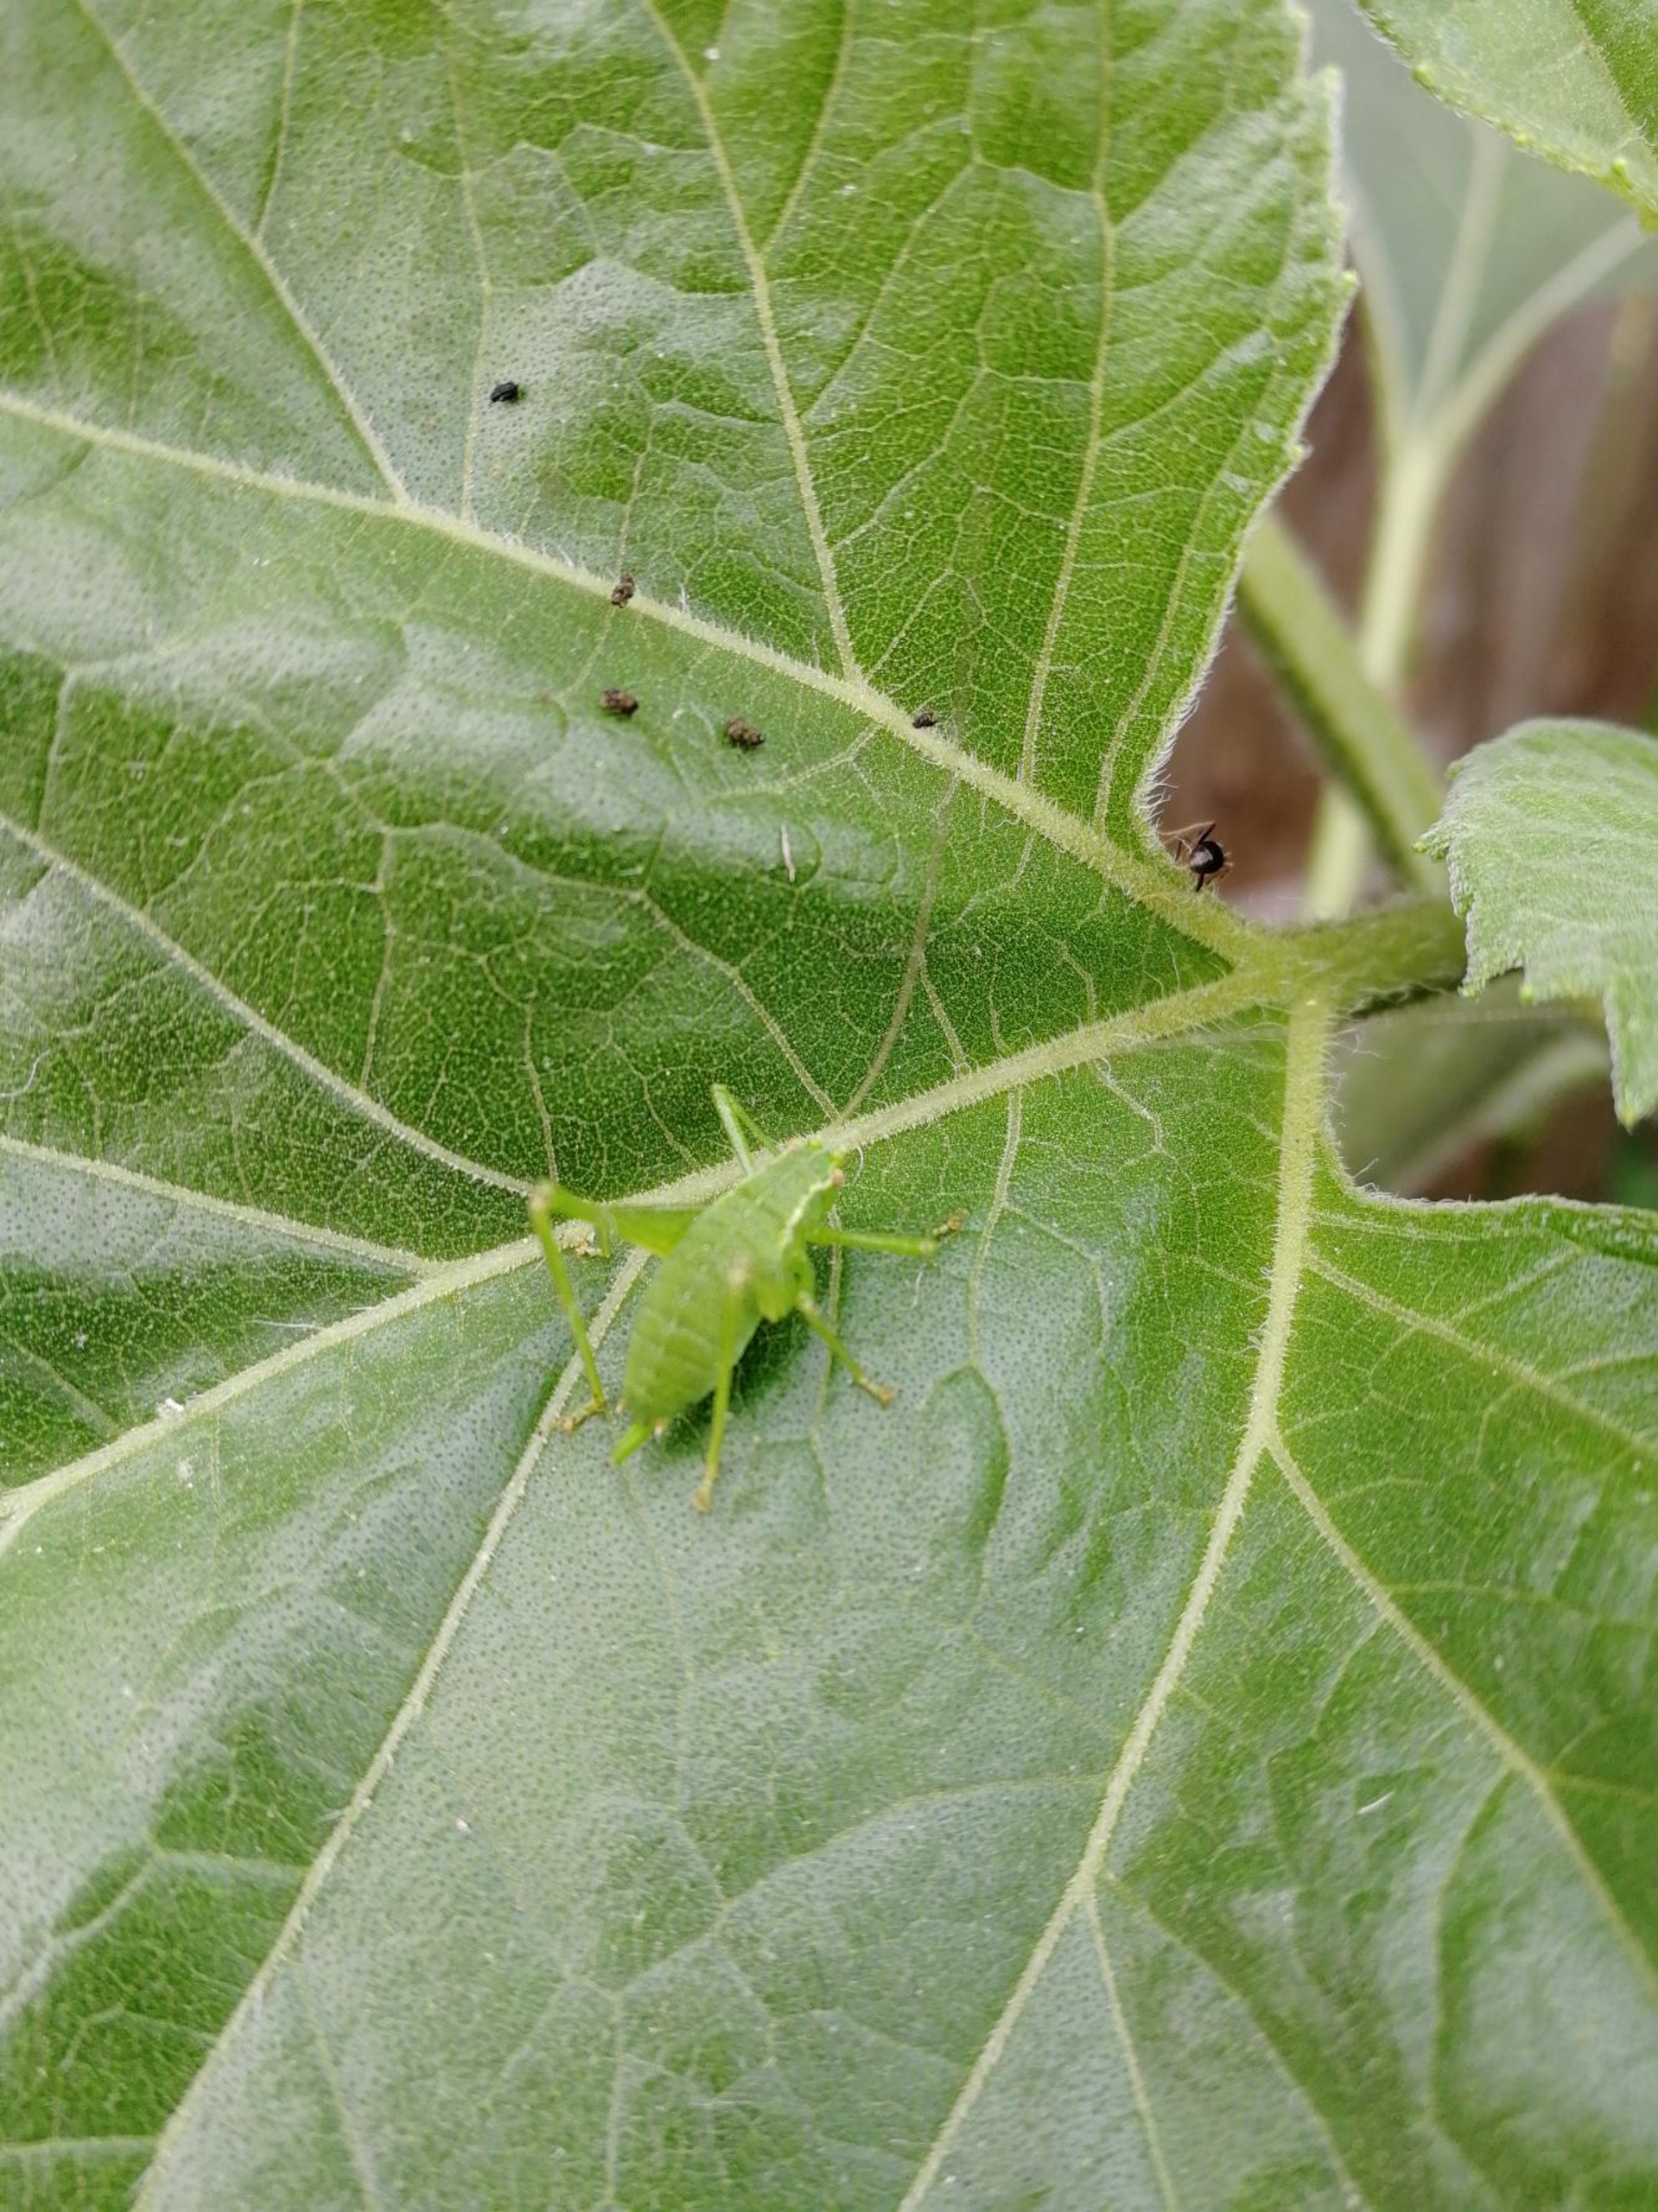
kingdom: Animalia
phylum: Arthropoda
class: Insecta
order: Orthoptera
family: Tettigoniidae
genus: Leptophyes
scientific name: Leptophyes punctatissima
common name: Krumknivgræshoppe
